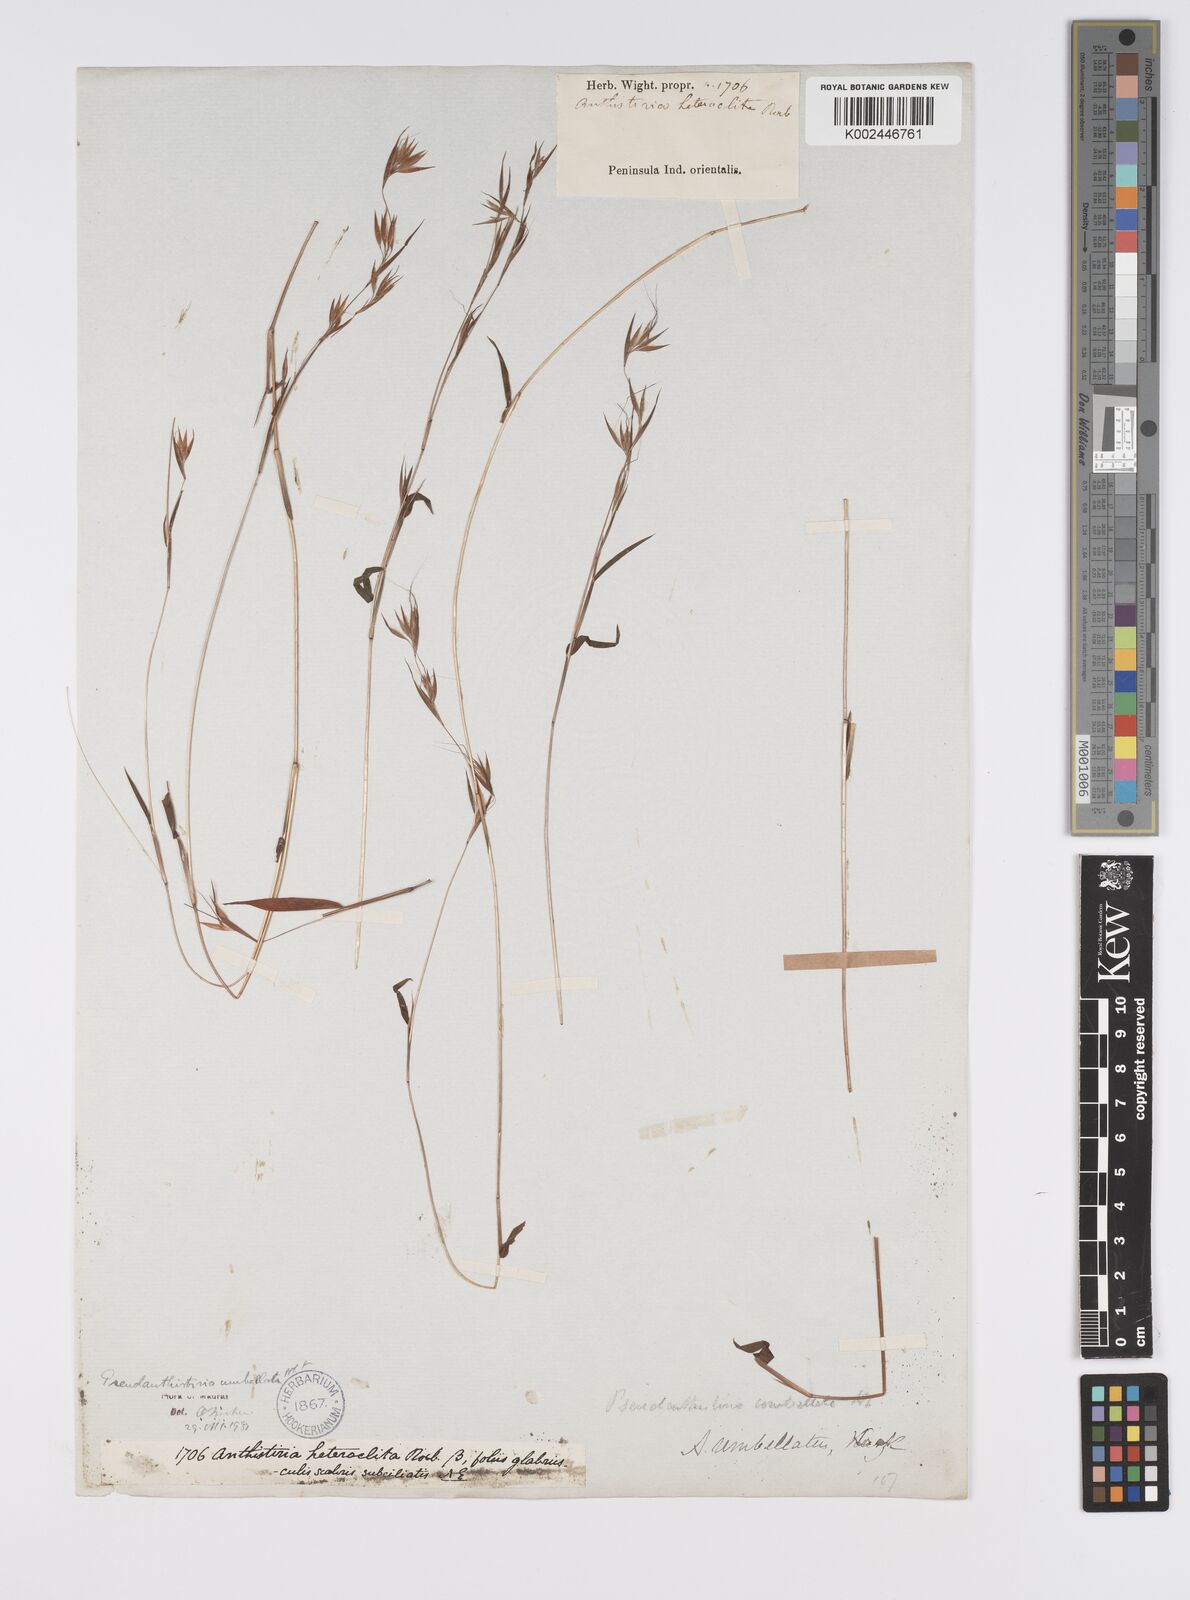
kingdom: Plantae
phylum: Tracheophyta
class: Liliopsida
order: Poales
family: Poaceae
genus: Pseudanthistiria
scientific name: Pseudanthistiria umbellata
